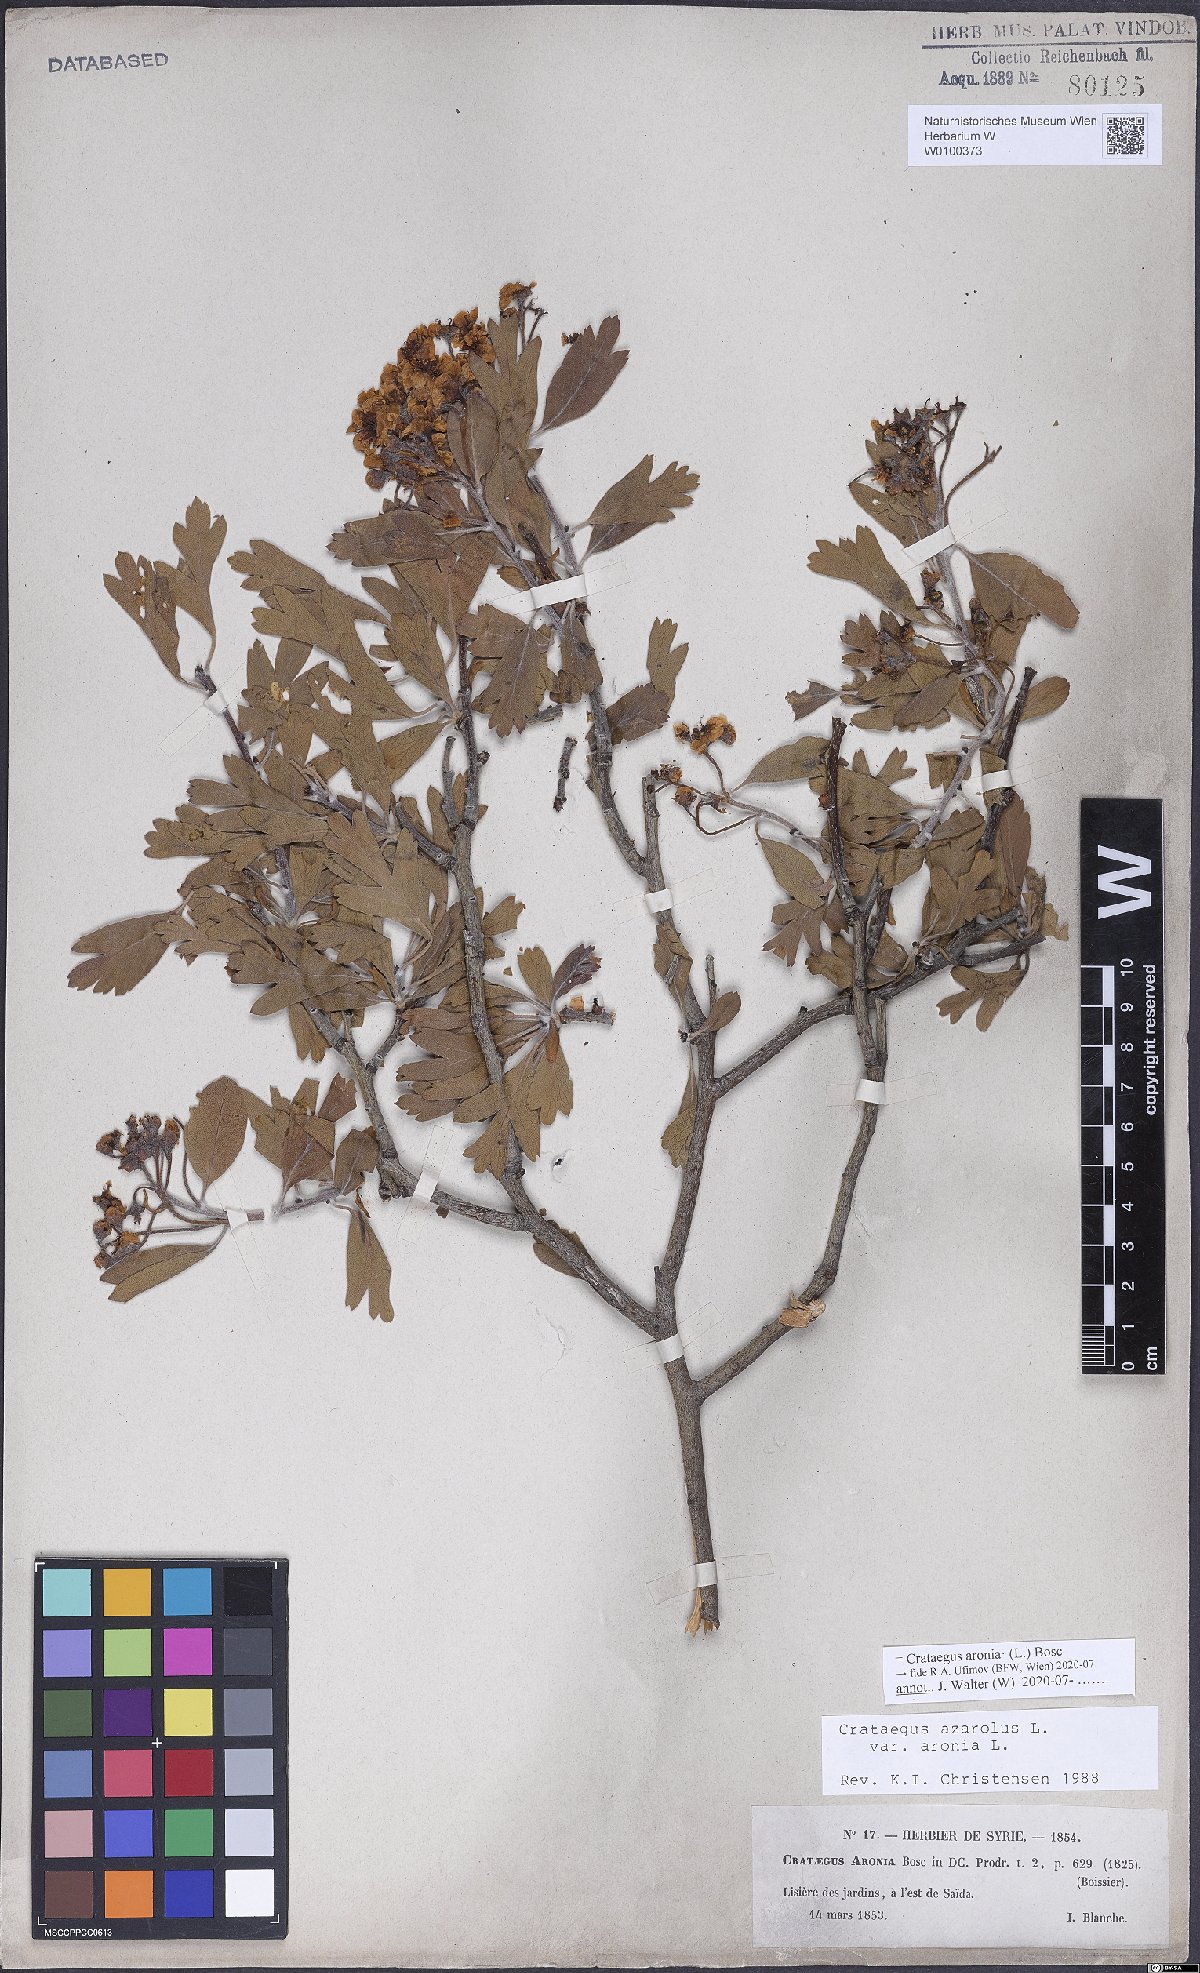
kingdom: Plantae
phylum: Tracheophyta
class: Magnoliopsida
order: Rosales
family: Rosaceae
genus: Crataegus
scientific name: Crataegus azarolus
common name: Azarole
